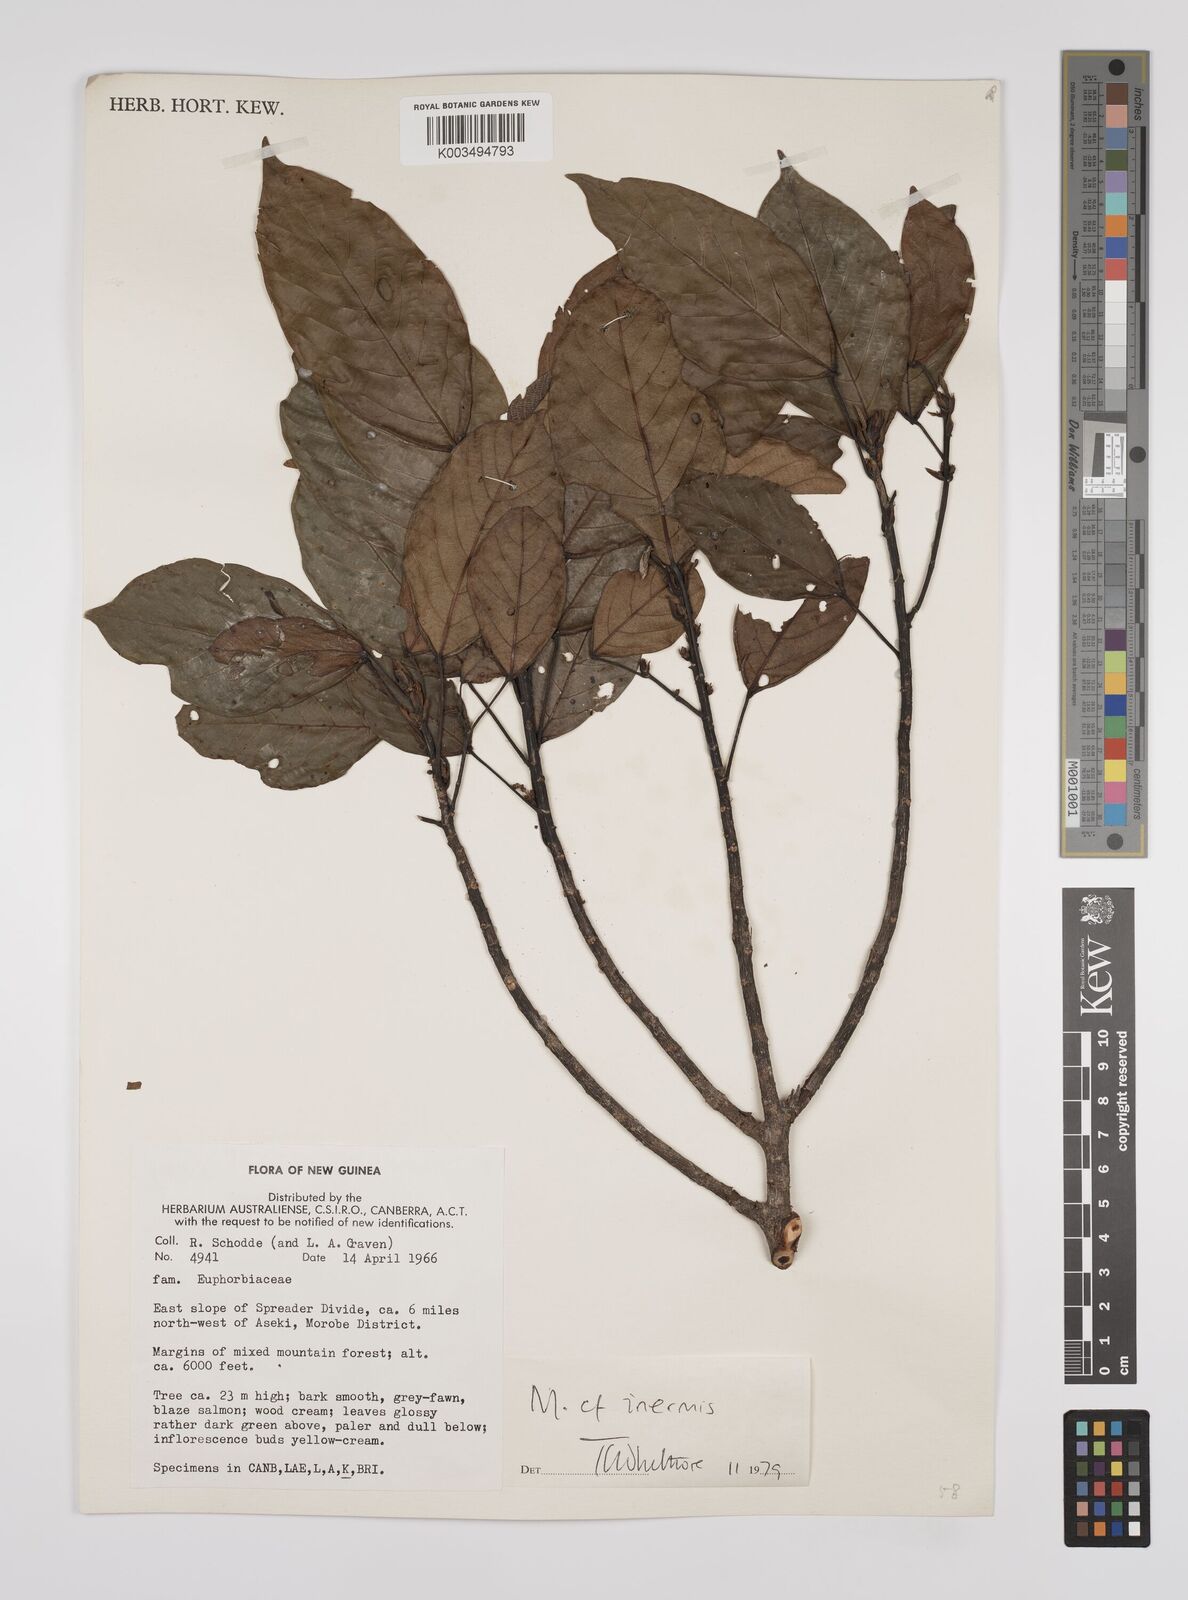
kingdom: Plantae
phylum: Tracheophyta
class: Magnoliopsida
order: Malpighiales
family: Euphorbiaceae
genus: Macaranga
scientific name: Macaranga inermis
